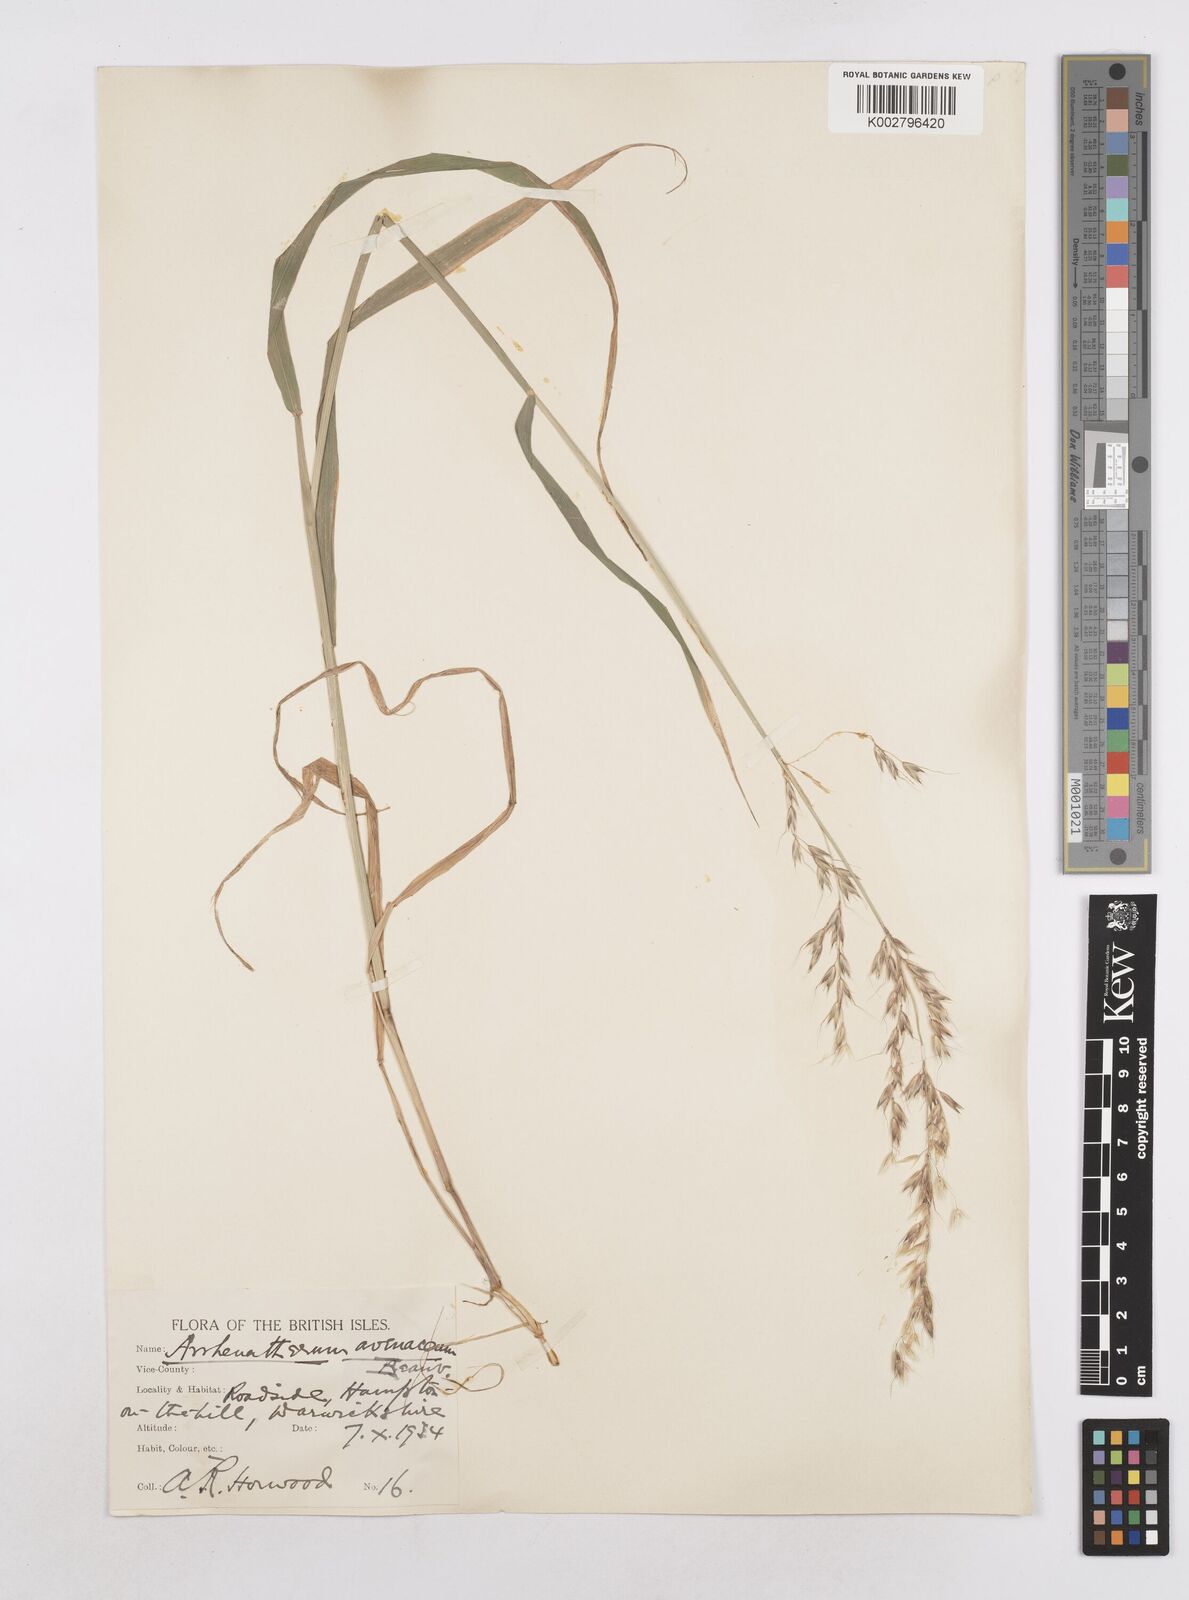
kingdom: Plantae
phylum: Tracheophyta
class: Liliopsida
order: Poales
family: Poaceae
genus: Arrhenatherum
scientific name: Arrhenatherum elatius
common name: Tall oatgrass
